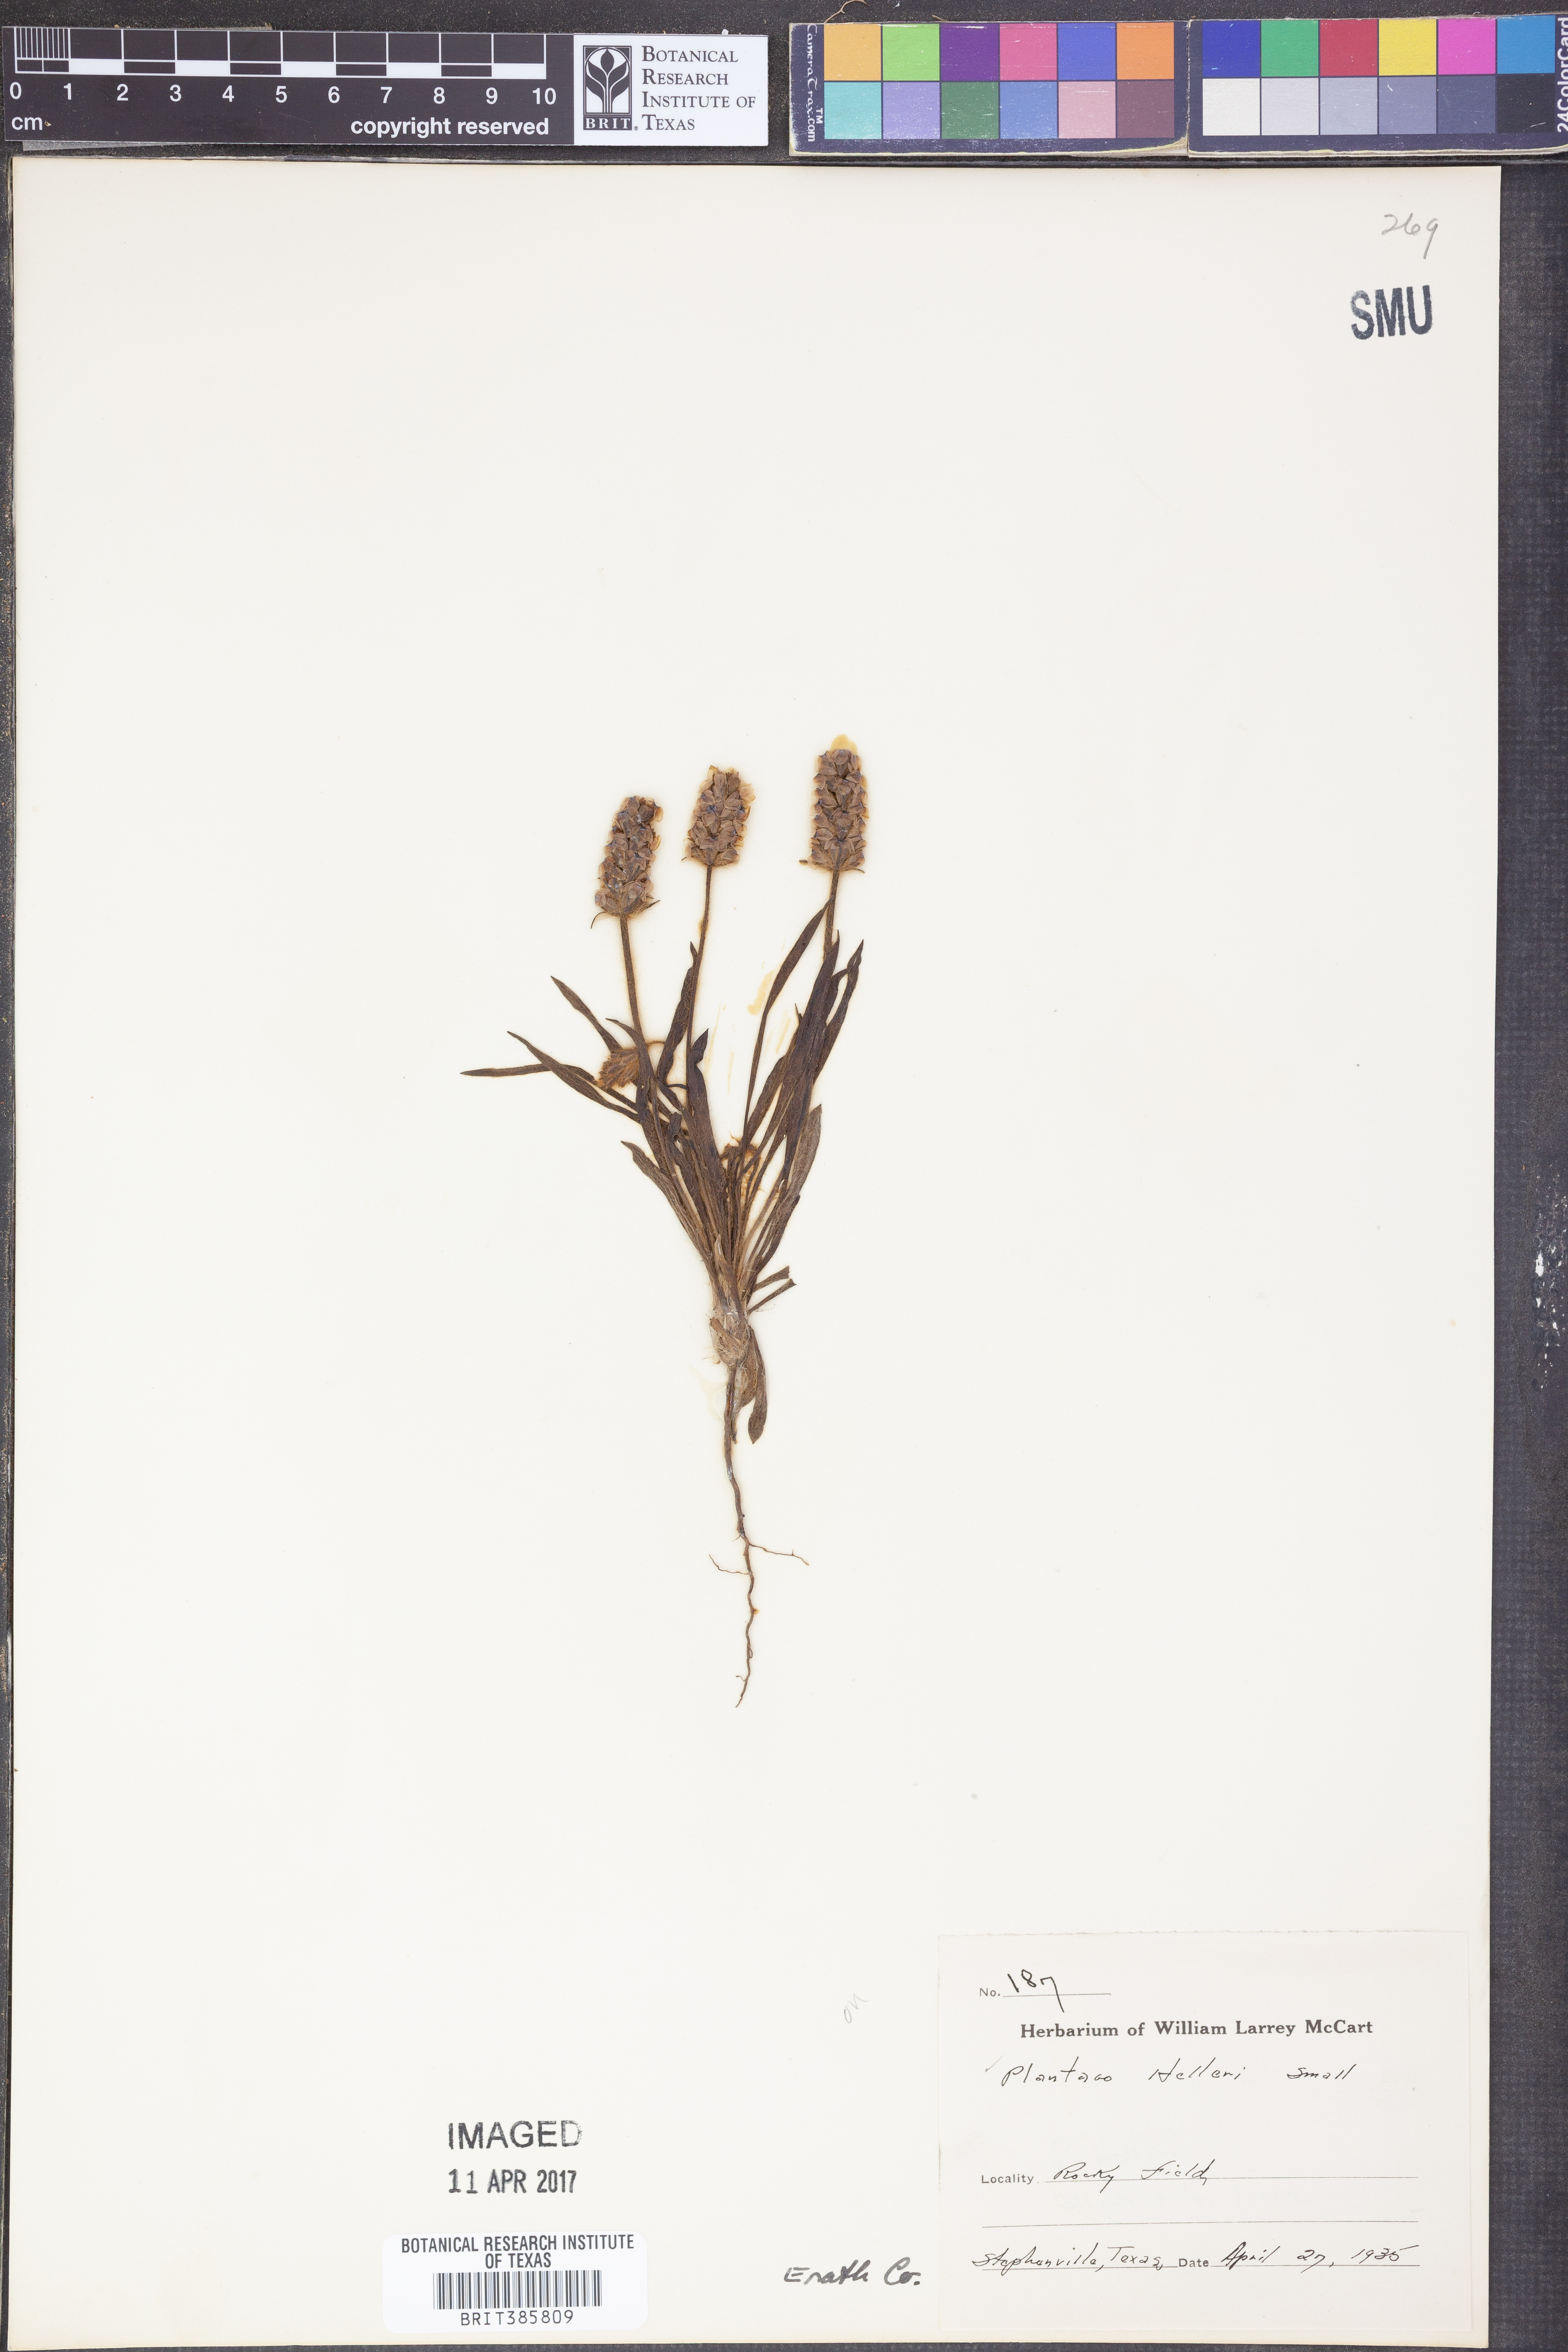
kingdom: Plantae
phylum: Tracheophyta
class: Magnoliopsida
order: Lamiales
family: Plantaginaceae
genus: Plantago
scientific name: Plantago helleri
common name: Heller's plantain
